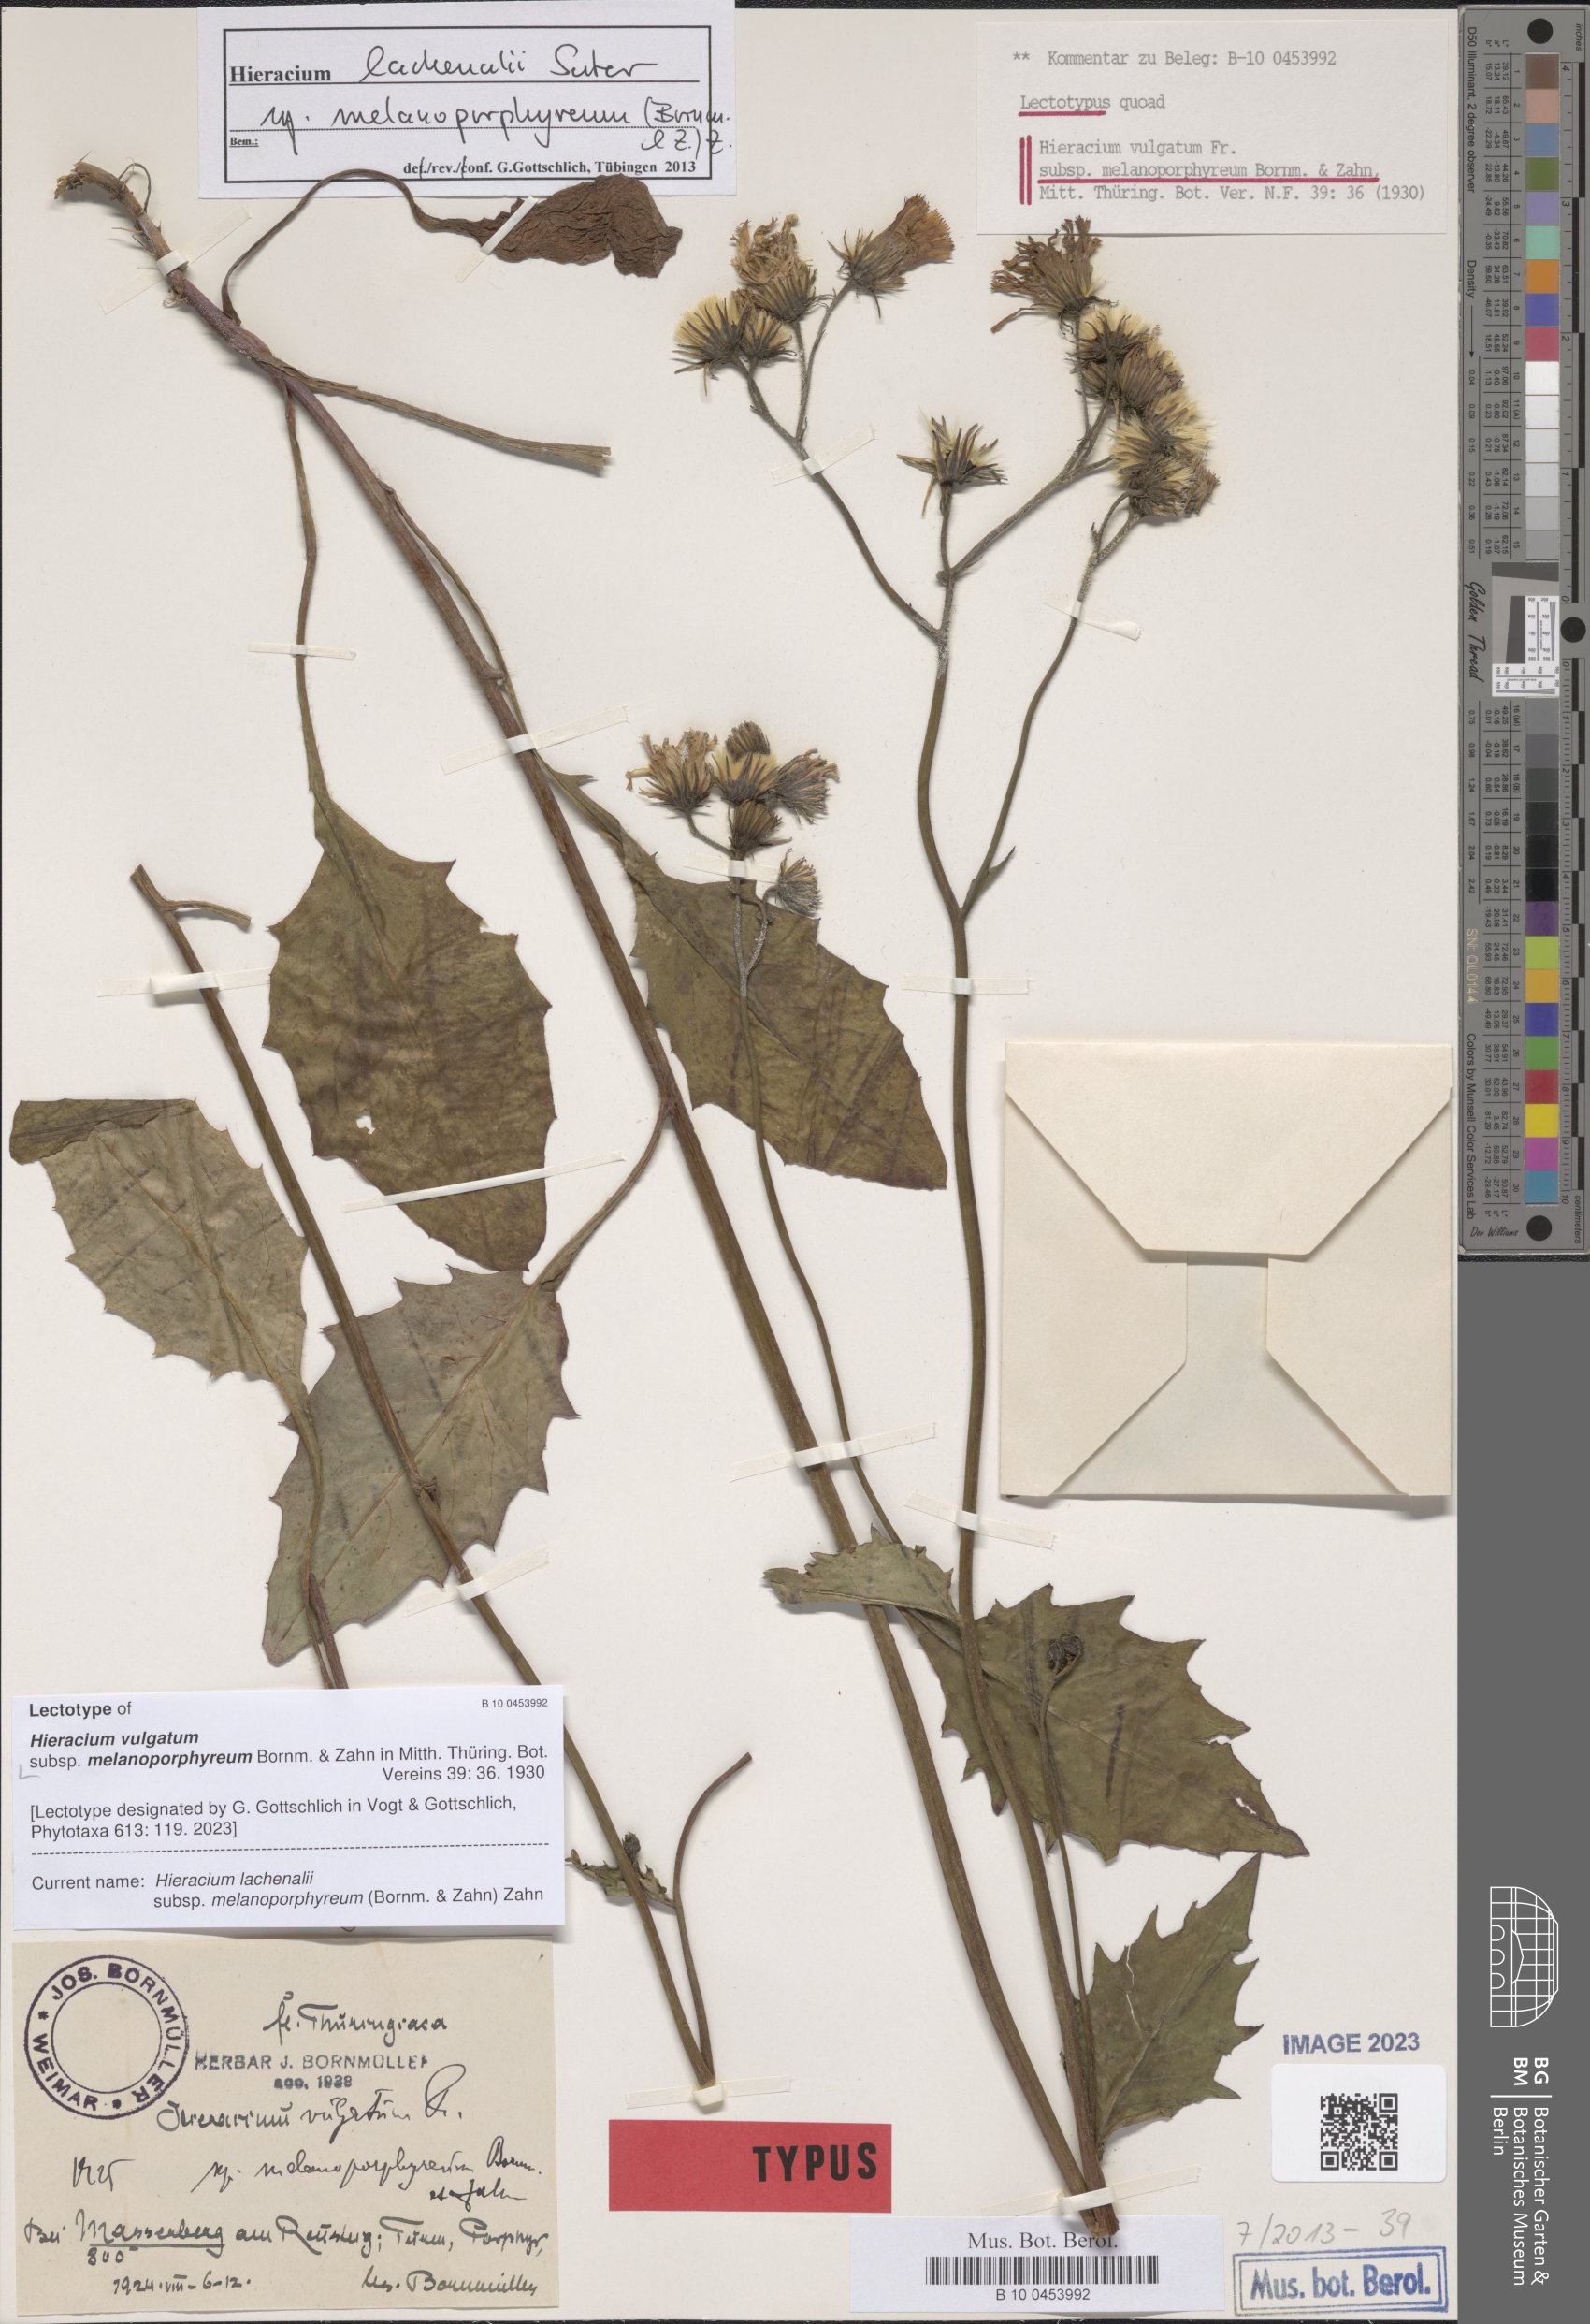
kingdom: Plantae
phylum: Tracheophyta
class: Magnoliopsida
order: Asterales
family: Asteraceae
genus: Hieracium
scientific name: Hieracium vulgatum
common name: Common hawkweed
